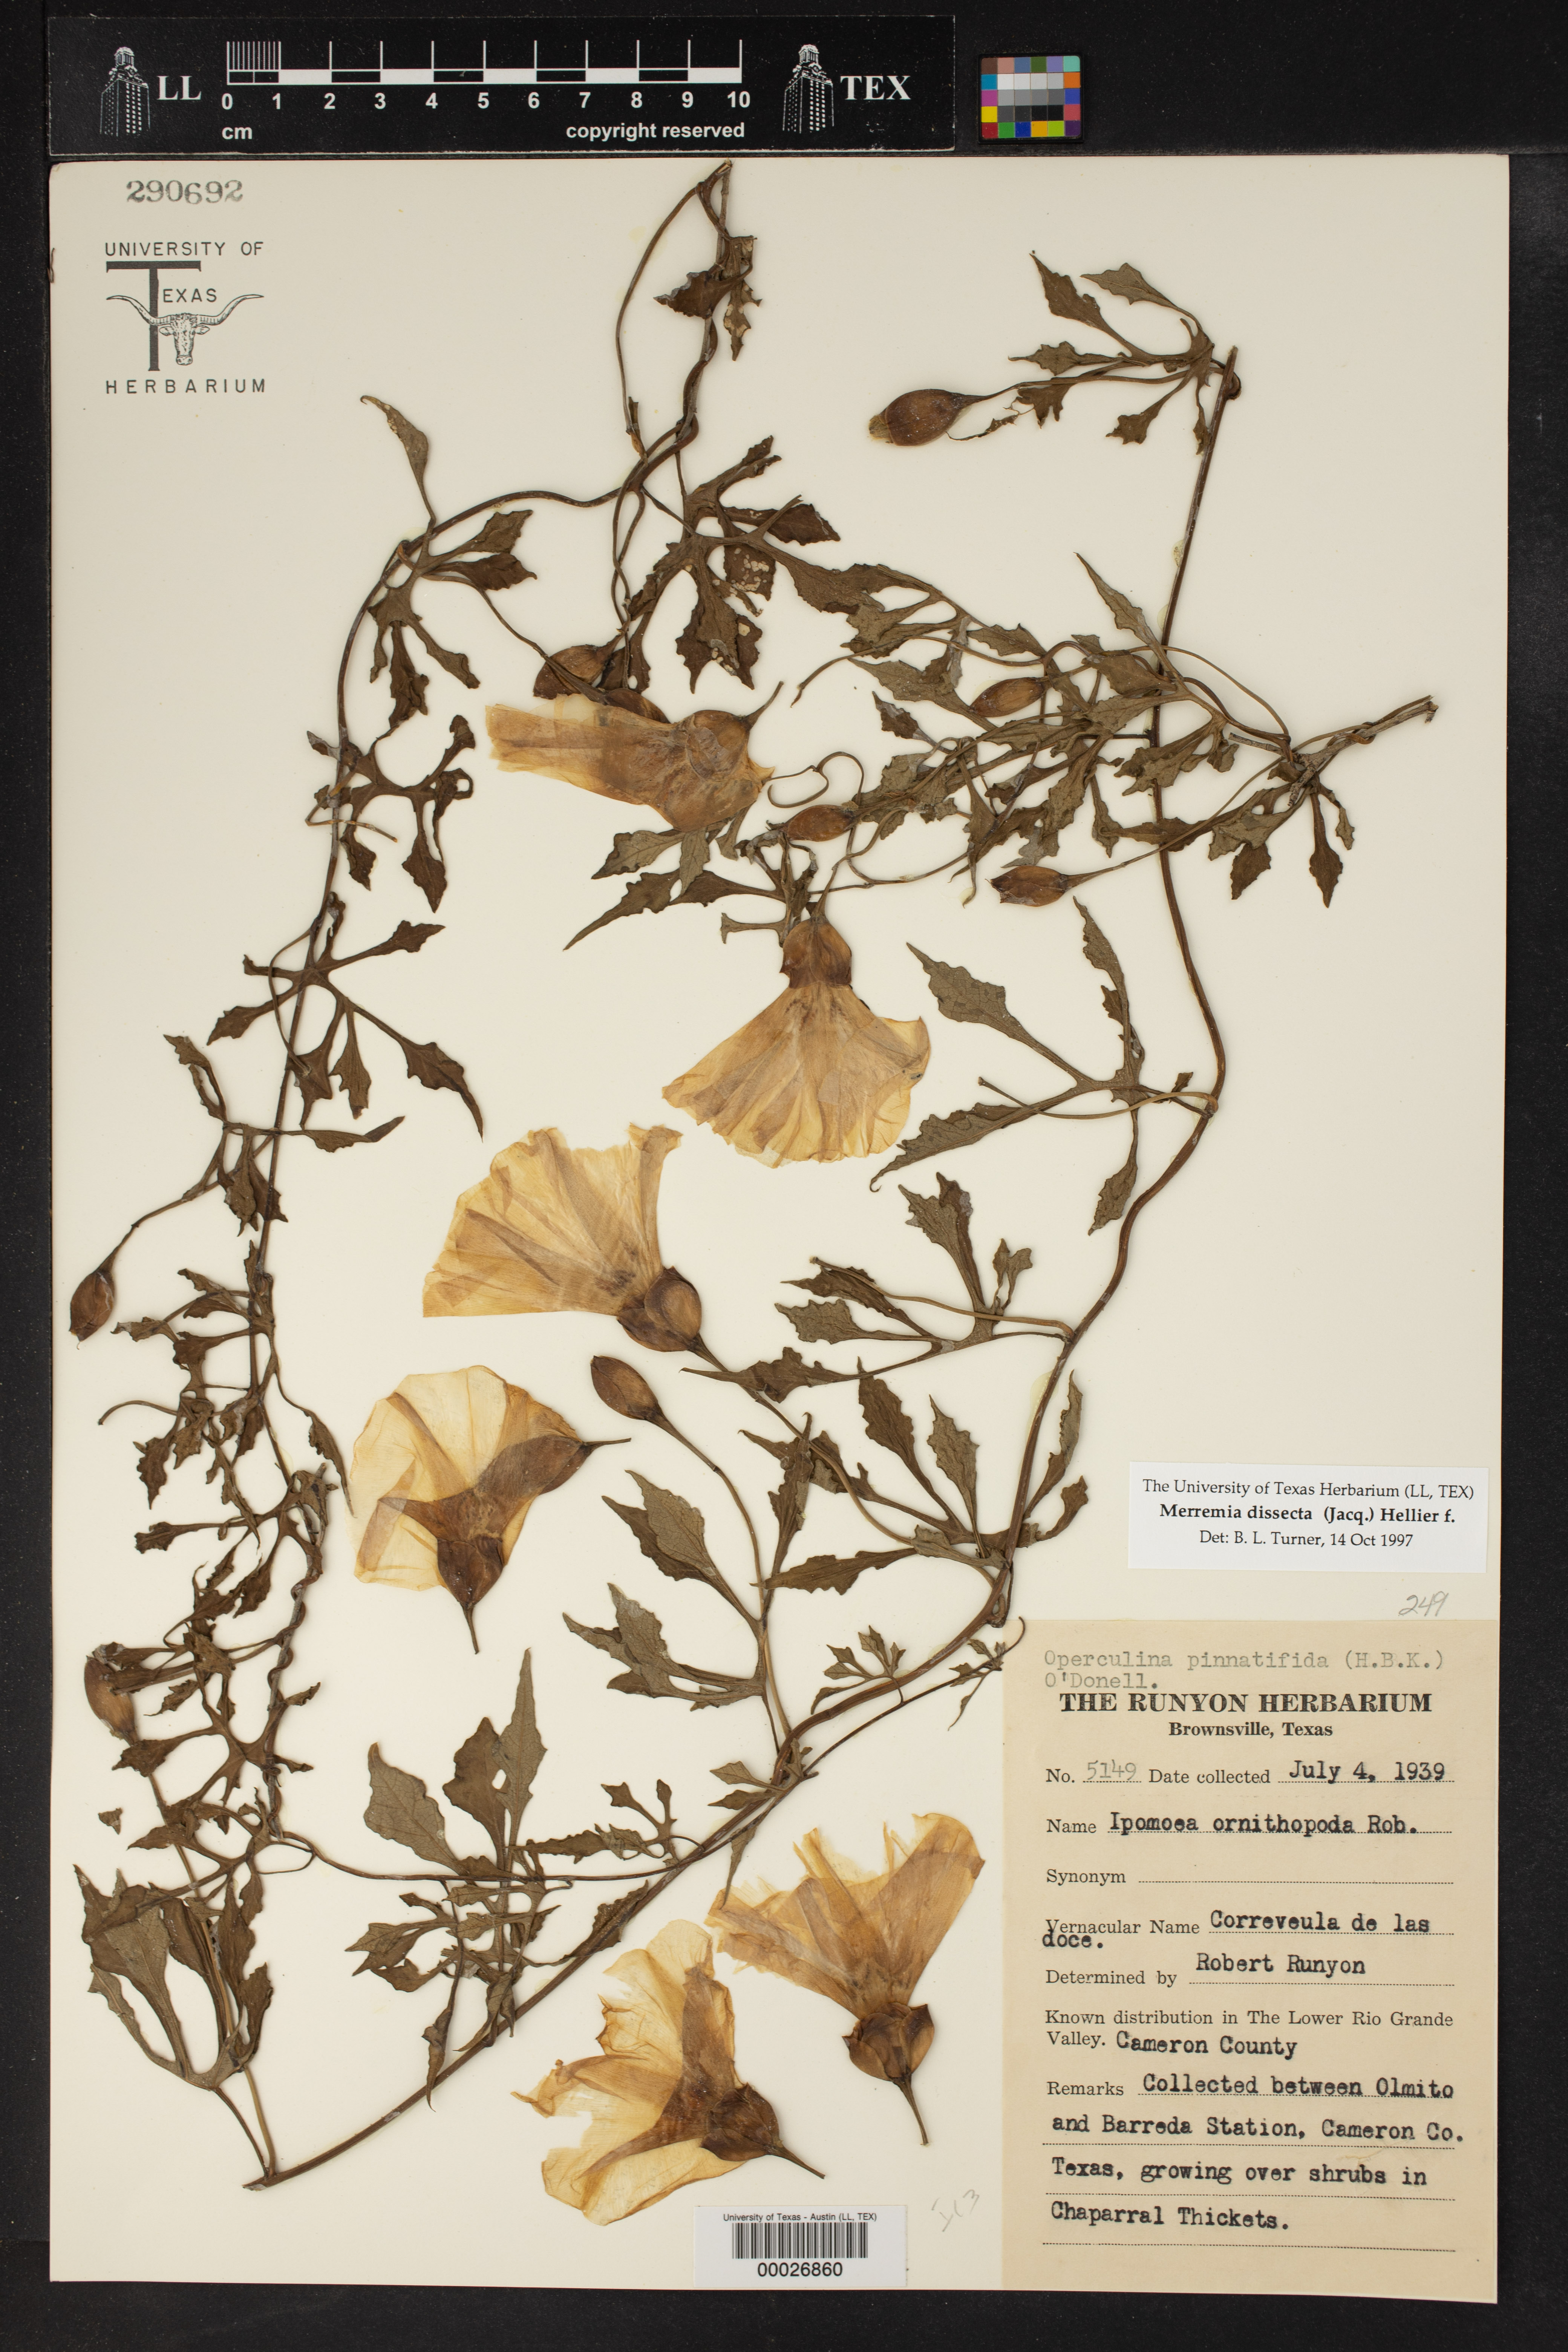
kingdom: Plantae
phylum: Tracheophyta
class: Magnoliopsida
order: Solanales
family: Convolvulaceae
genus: Distimake
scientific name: Distimake dissectus
